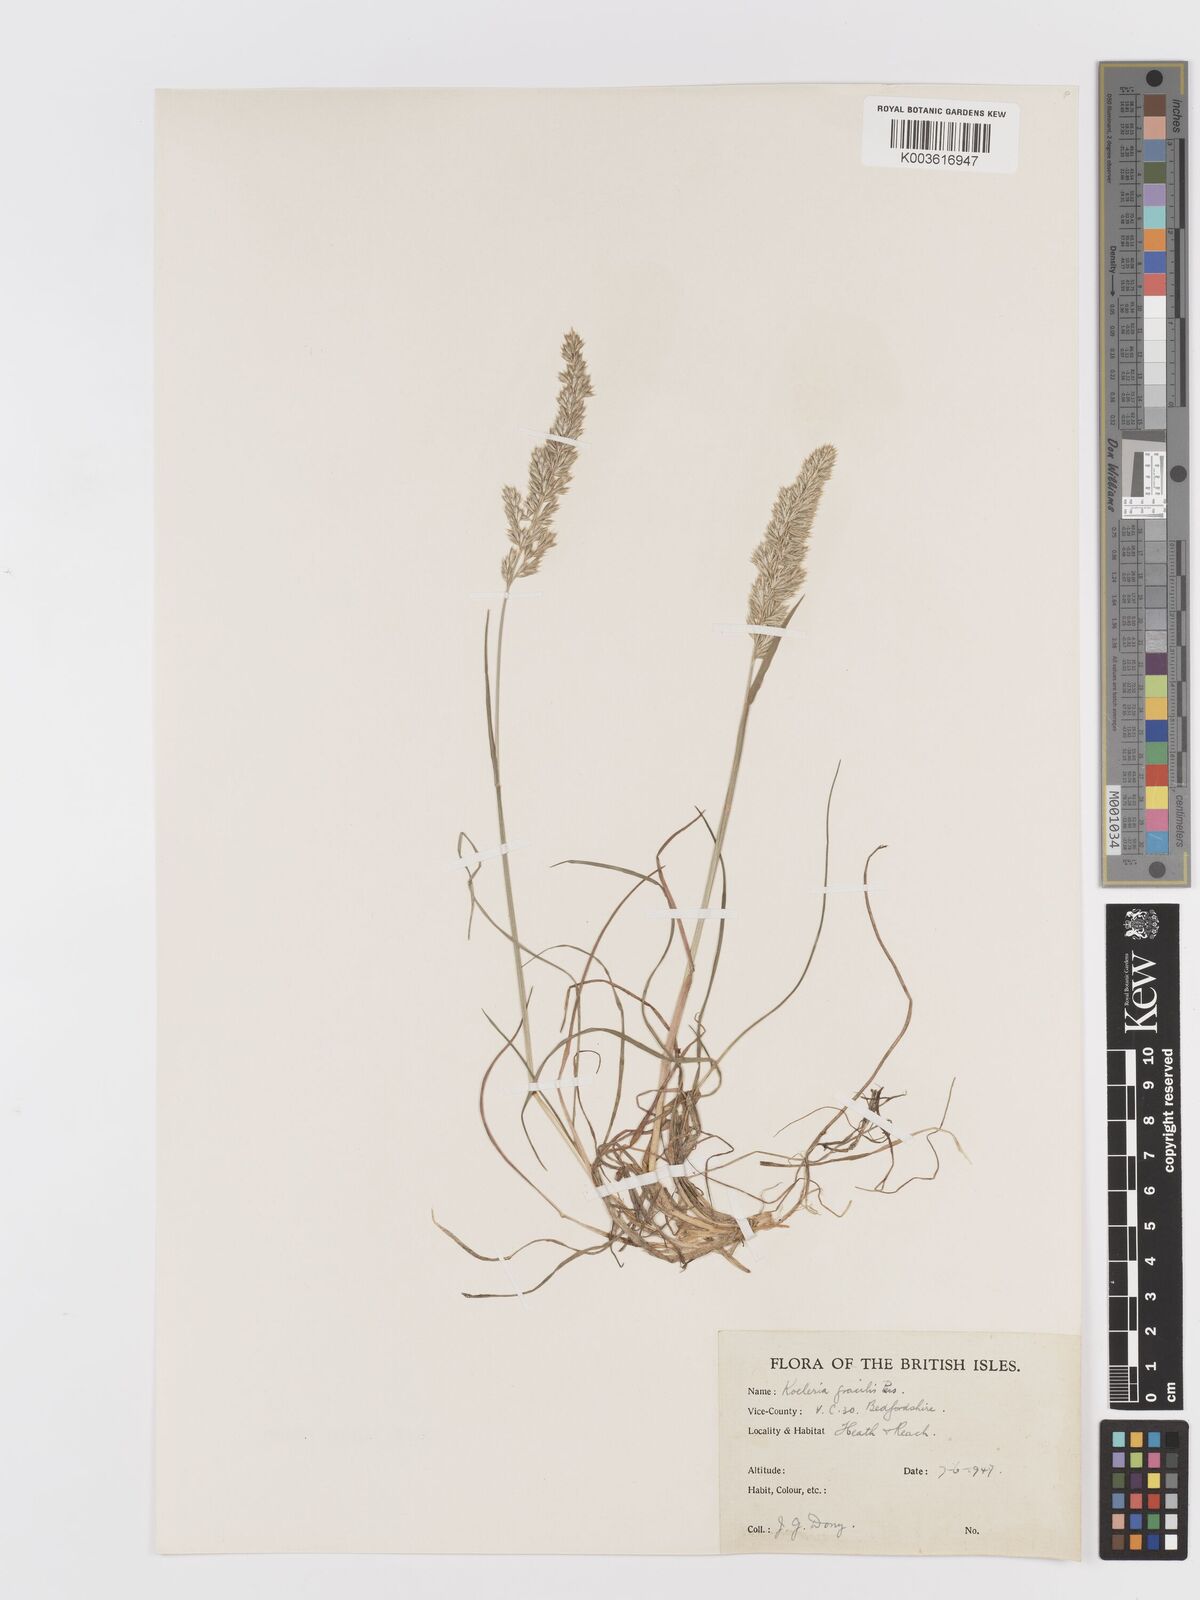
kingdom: Plantae
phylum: Tracheophyta
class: Liliopsida
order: Poales
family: Poaceae
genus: Koeleria
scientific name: Koeleria macrantha
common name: Crested hair-grass
